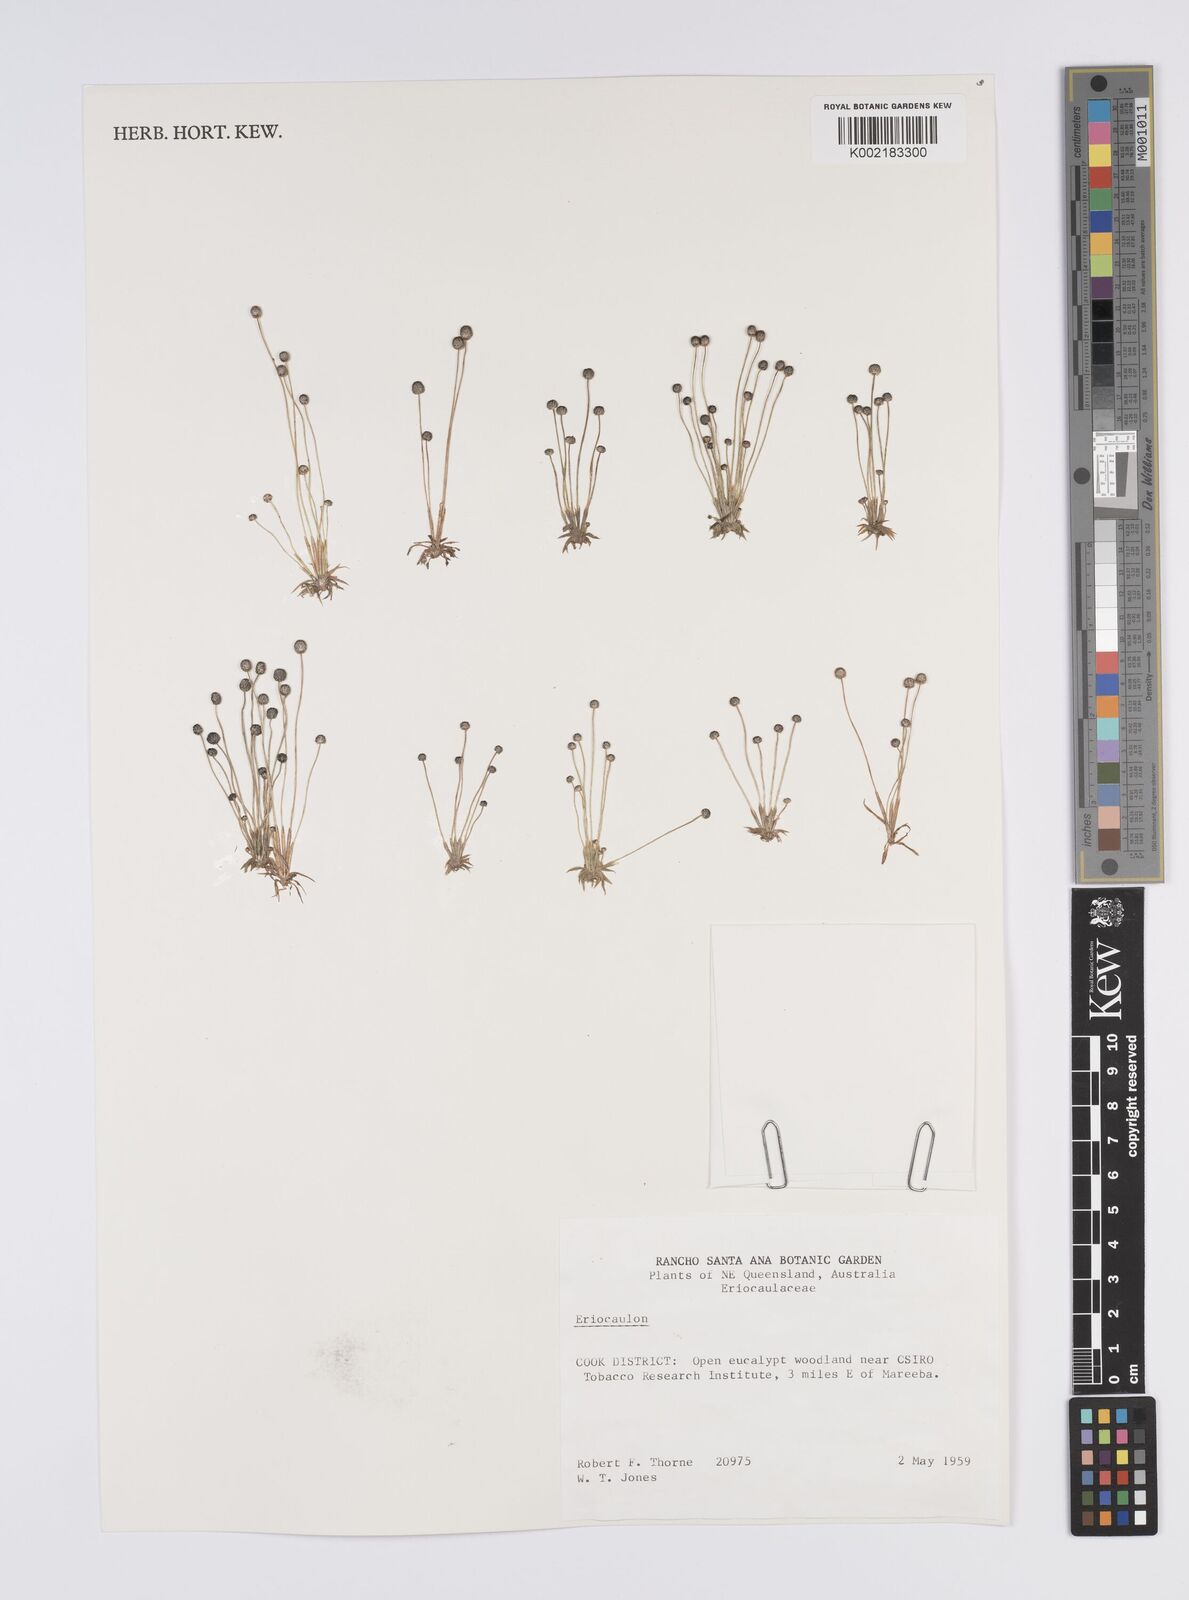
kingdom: Plantae
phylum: Tracheophyta
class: Liliopsida
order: Poales
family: Eriocaulaceae
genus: Eriocaulon
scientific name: Eriocaulon
